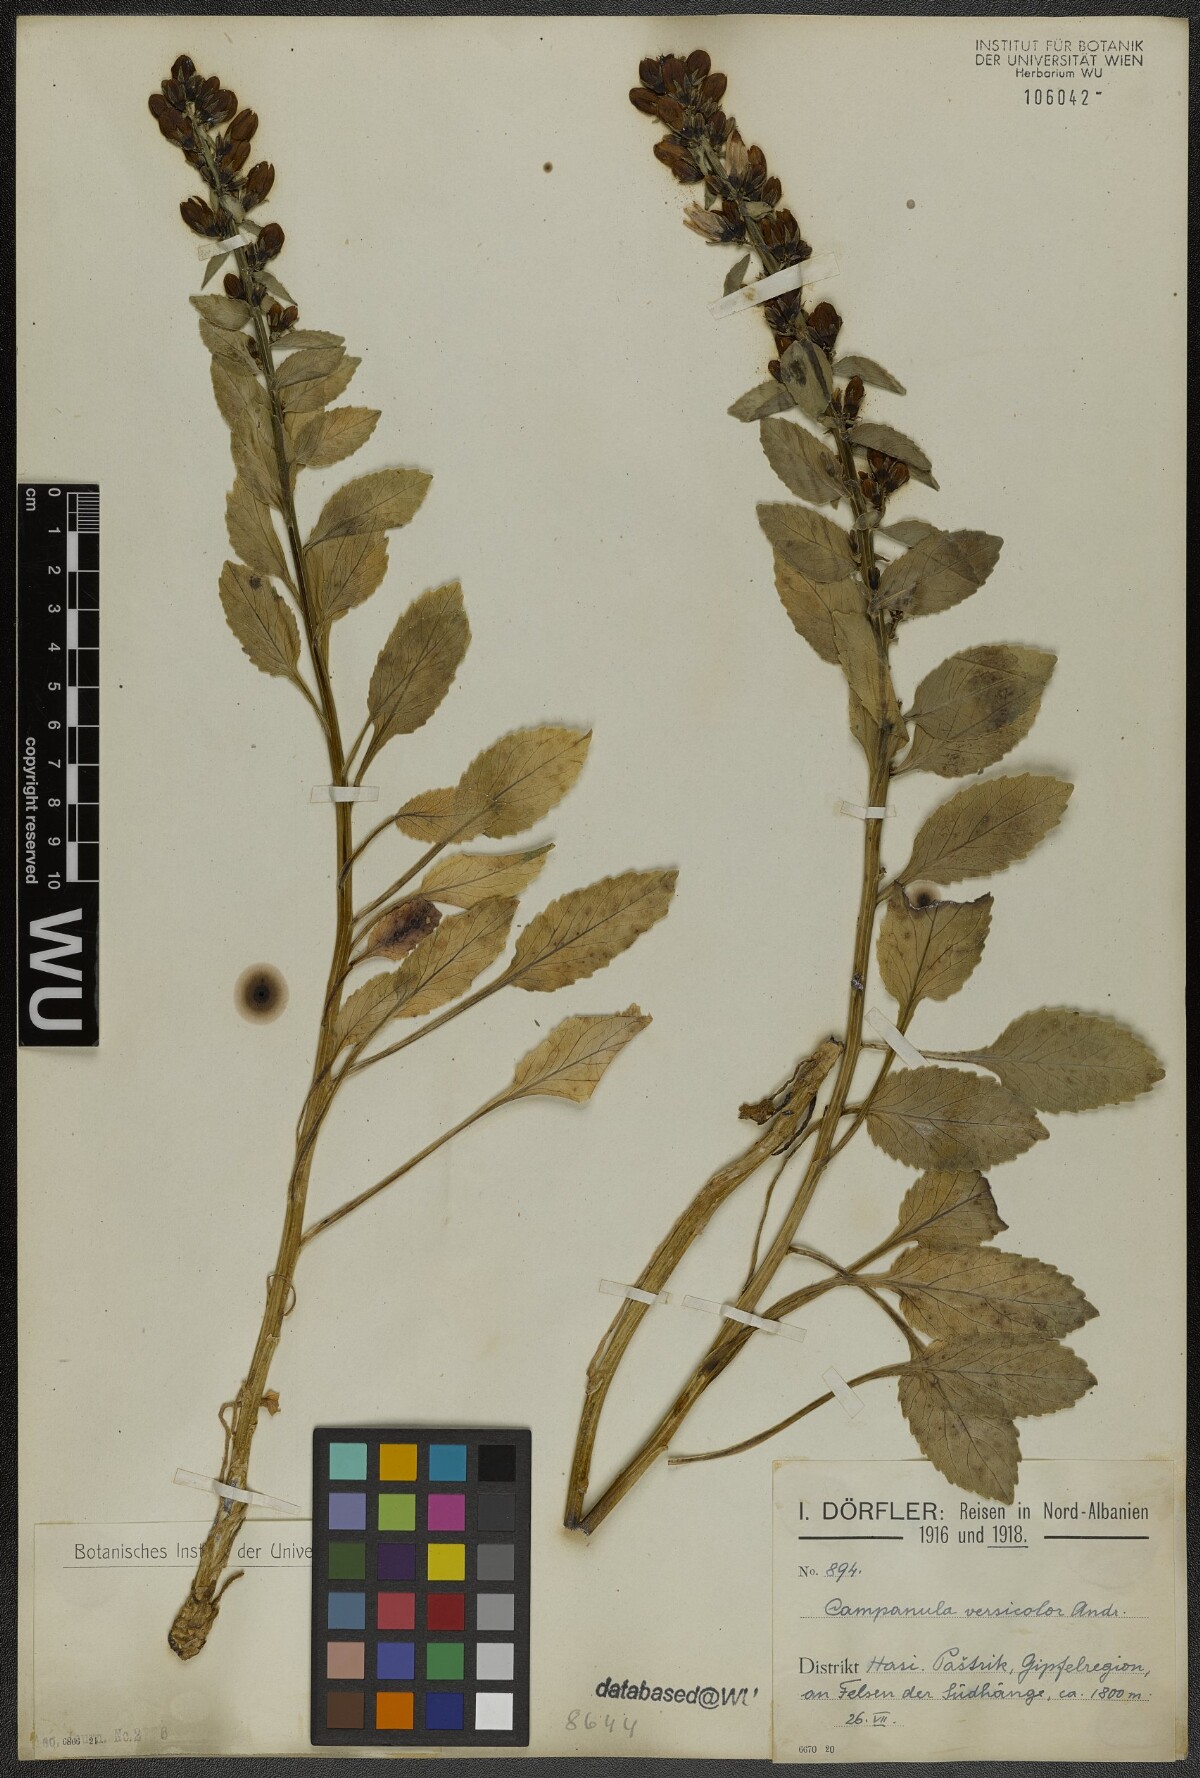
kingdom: Plantae
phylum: Tracheophyta
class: Magnoliopsida
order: Asterales
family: Campanulaceae
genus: Campanula
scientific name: Campanula versicolor
